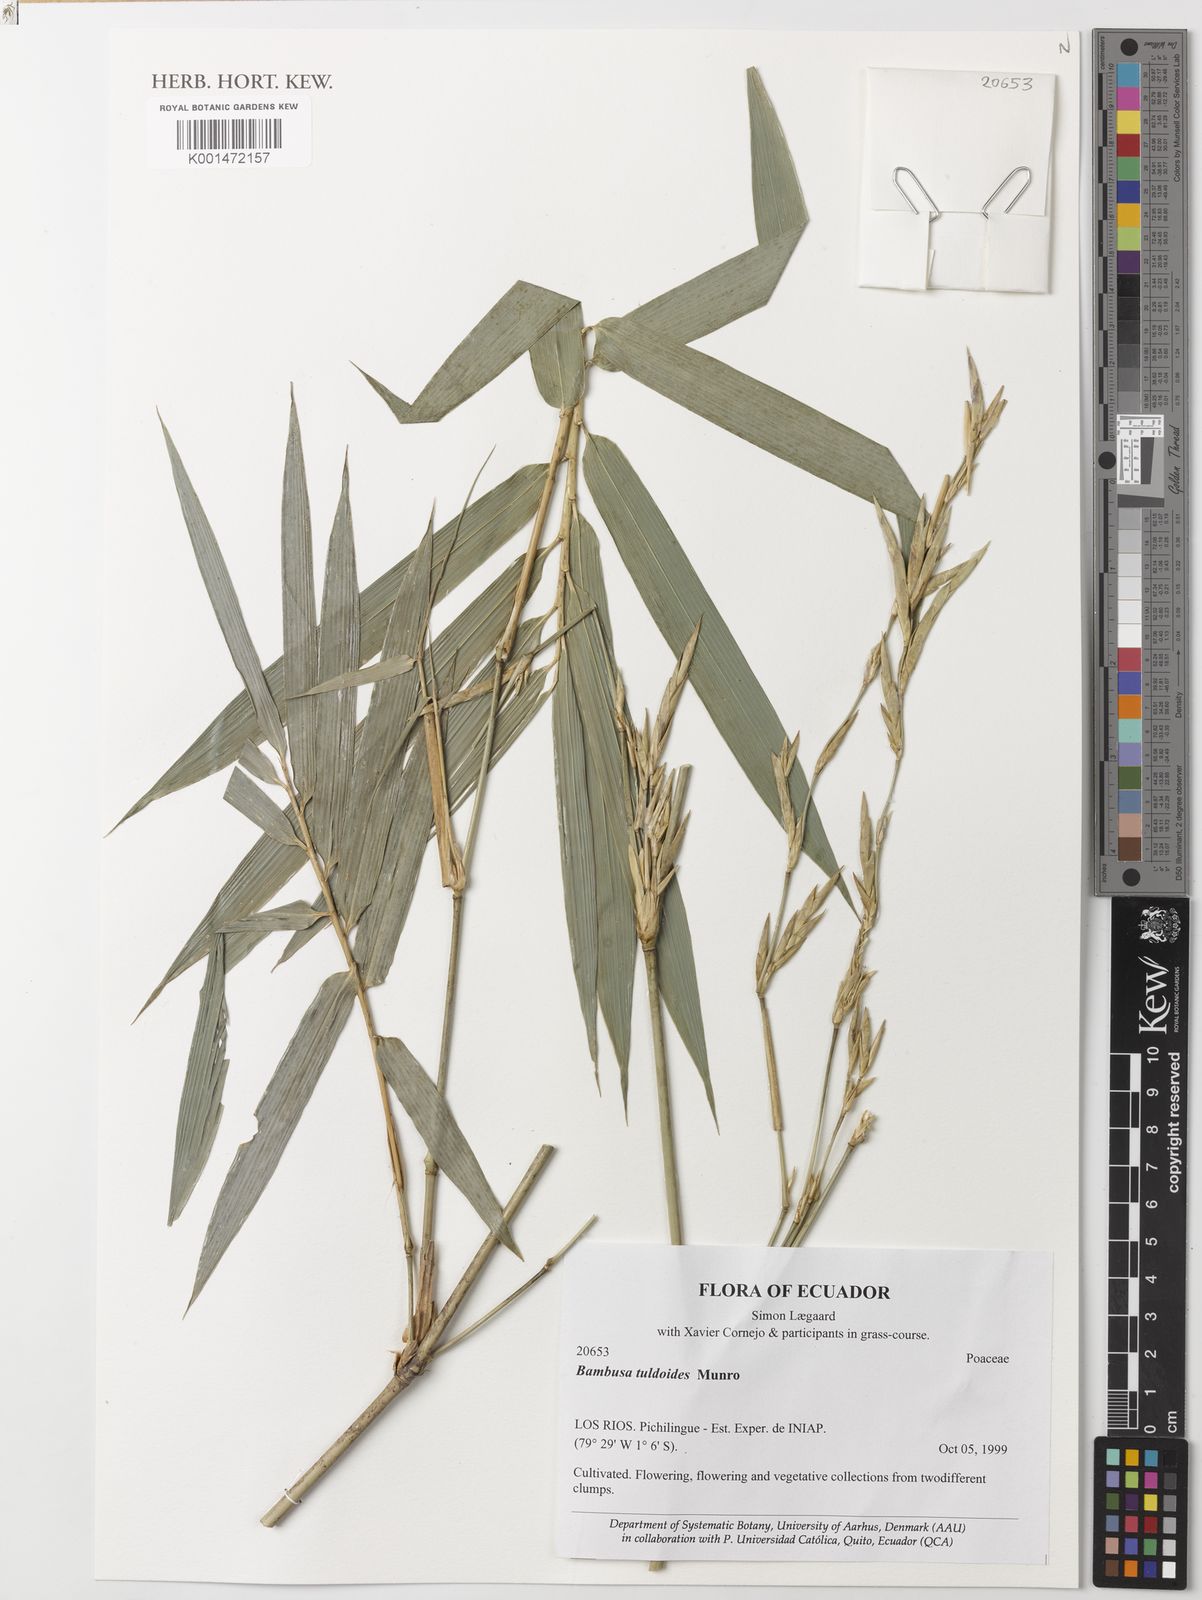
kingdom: Plantae
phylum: Tracheophyta
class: Liliopsida
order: Poales
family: Poaceae
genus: Bambusa
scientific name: Bambusa tuldoides
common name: Verdant bamboo
